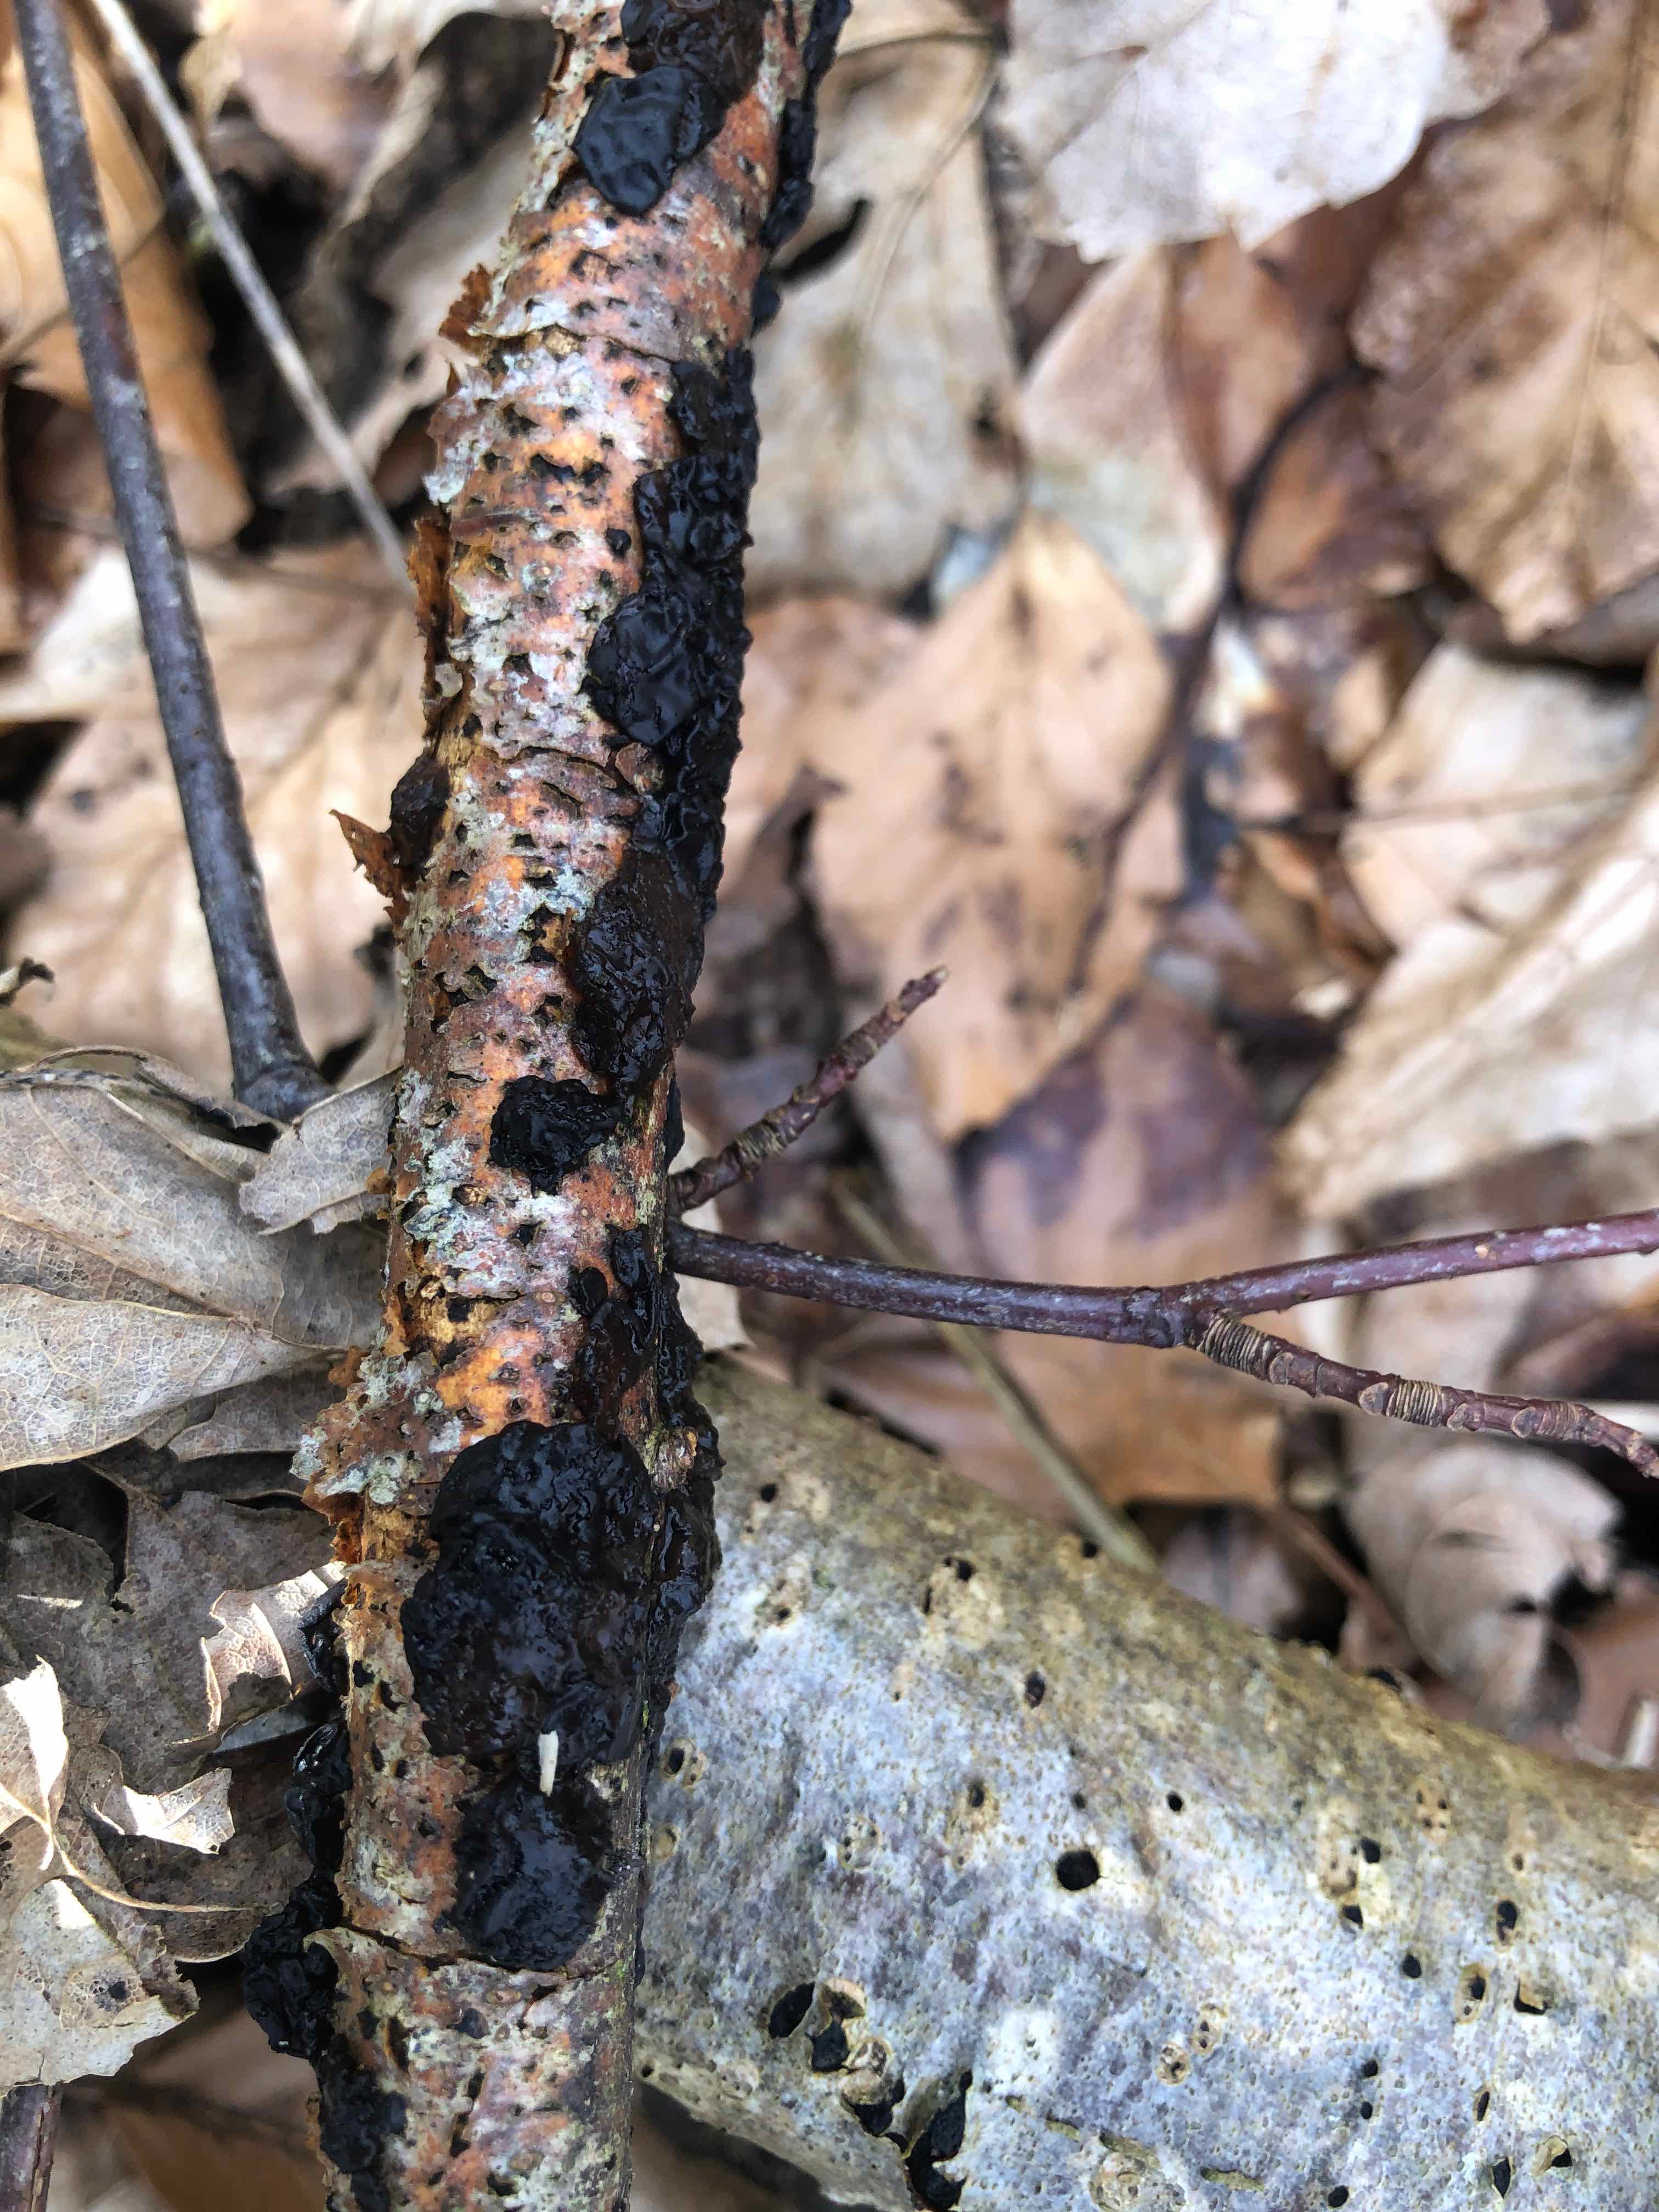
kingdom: Fungi
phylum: Basidiomycota
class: Agaricomycetes
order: Auriculariales
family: Auriculariaceae
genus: Exidia
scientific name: Exidia nigricans
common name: almindelig bævretop
